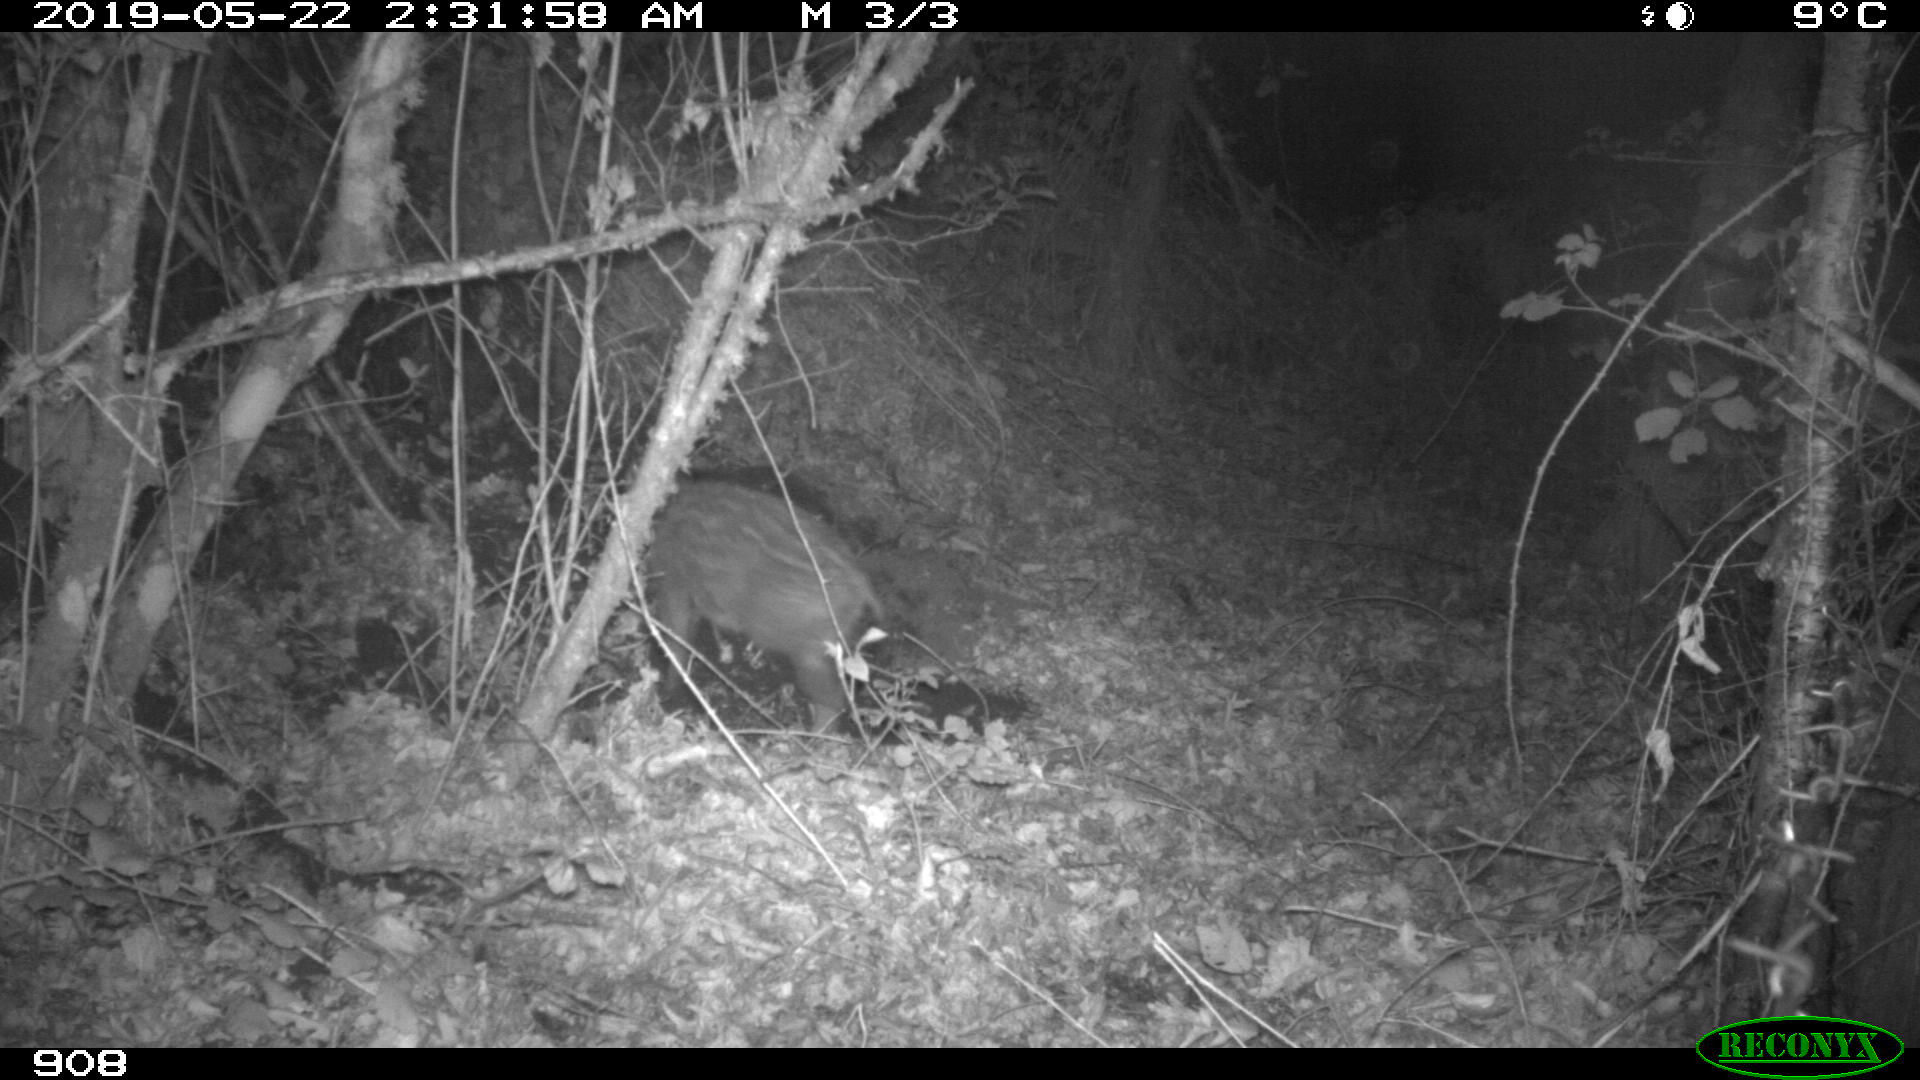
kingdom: Animalia
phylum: Chordata
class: Mammalia
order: Artiodactyla
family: Suidae
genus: Sus
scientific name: Sus scrofa
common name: Wild boar
